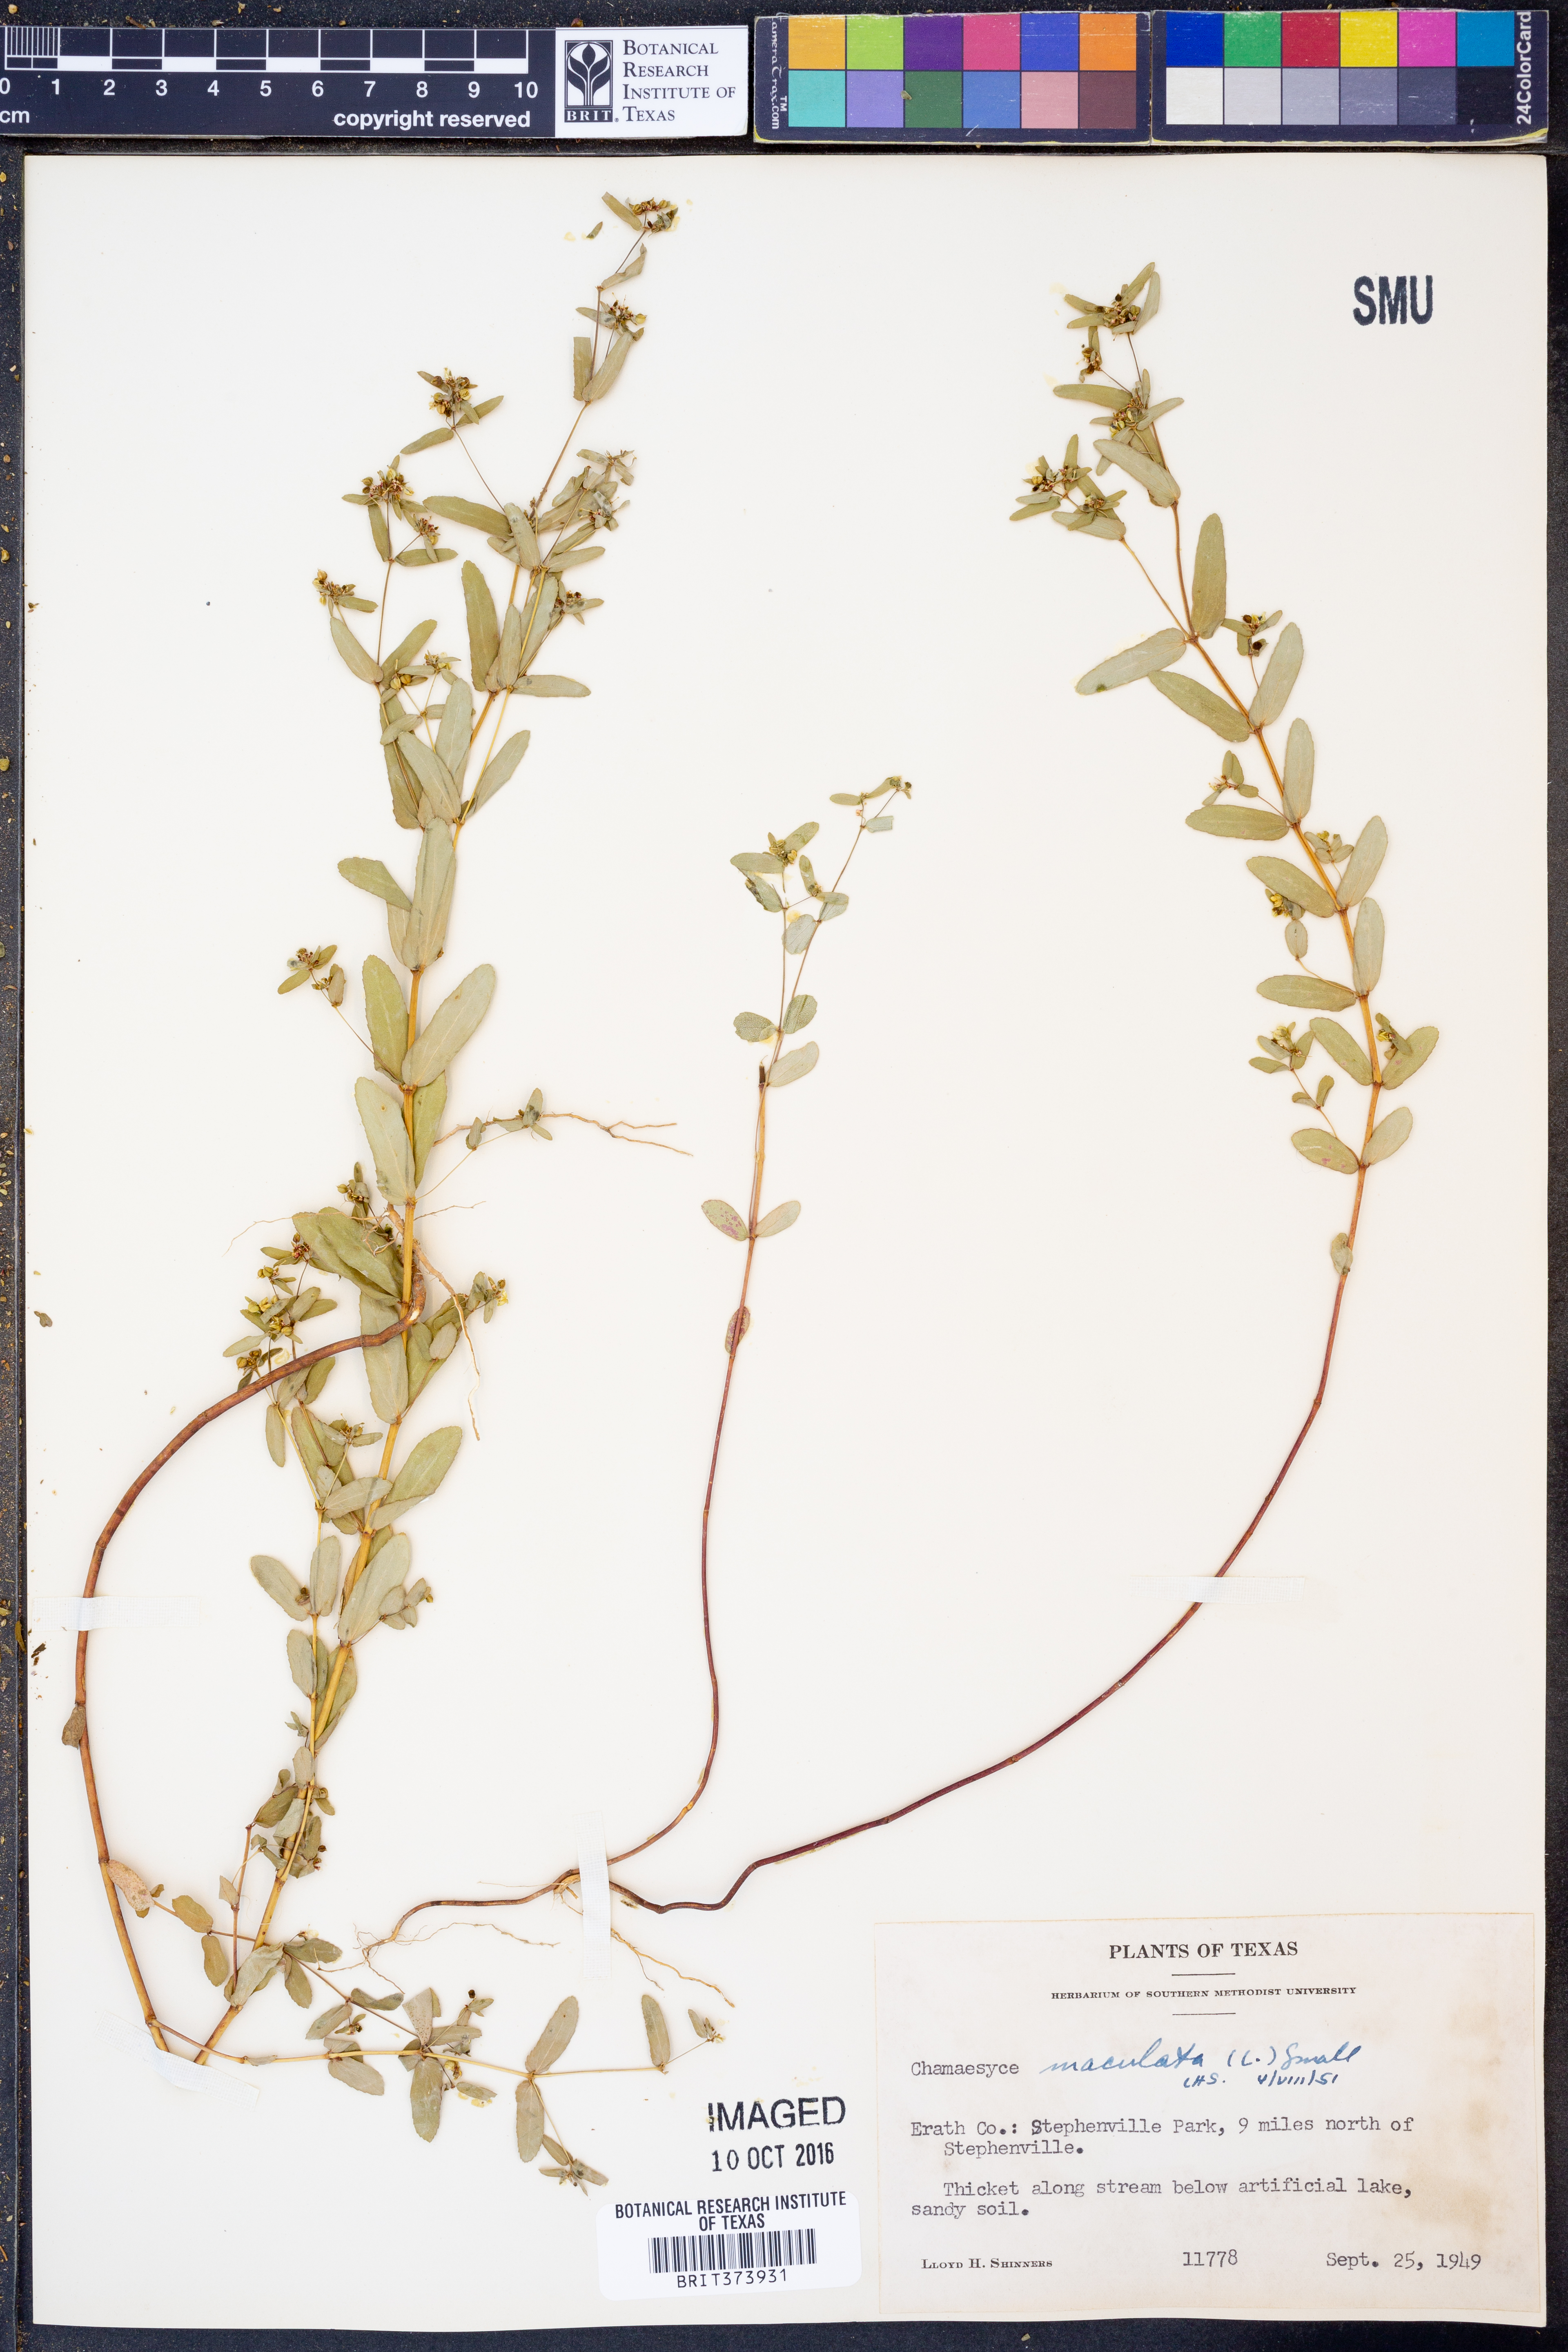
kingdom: Plantae
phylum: Tracheophyta
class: Magnoliopsida
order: Malpighiales
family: Euphorbiaceae
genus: Euphorbia
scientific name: Euphorbia maculata
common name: Spotted spurge
